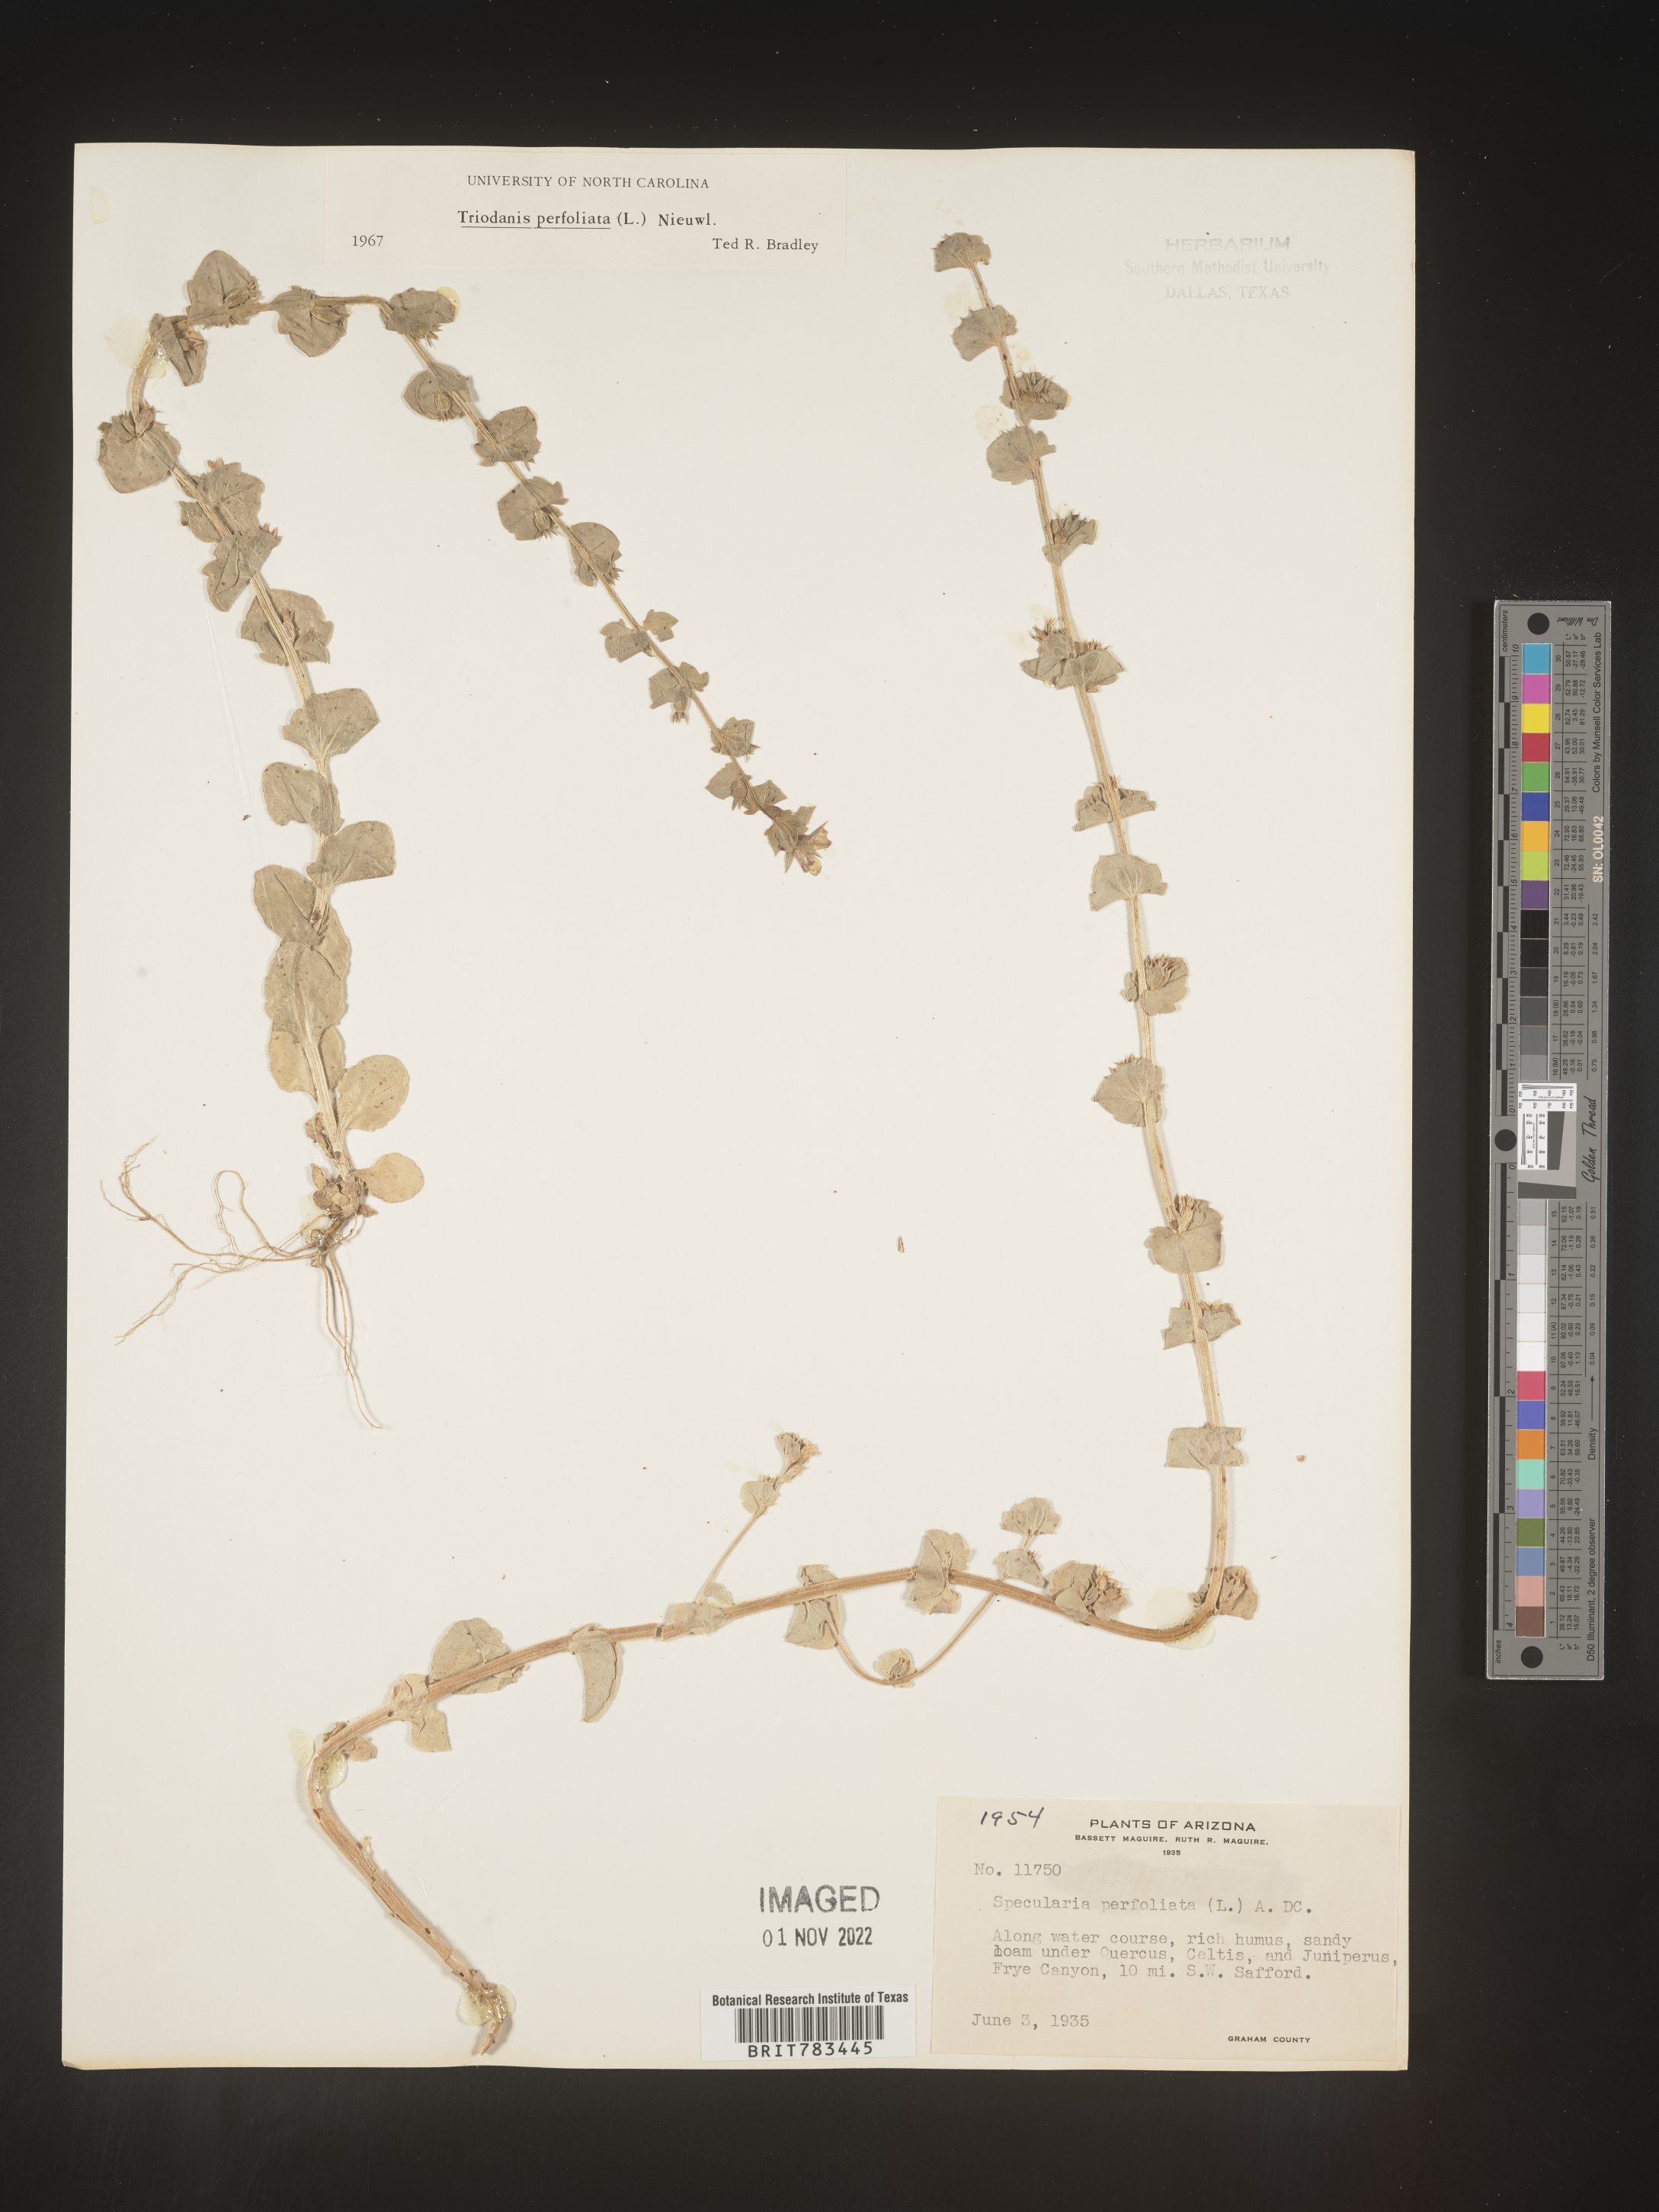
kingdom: Plantae
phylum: Tracheophyta
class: Magnoliopsida
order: Asterales
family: Campanulaceae
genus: Triodanis
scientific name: Triodanis perfoliata
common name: Clasping venus' looking-glass
